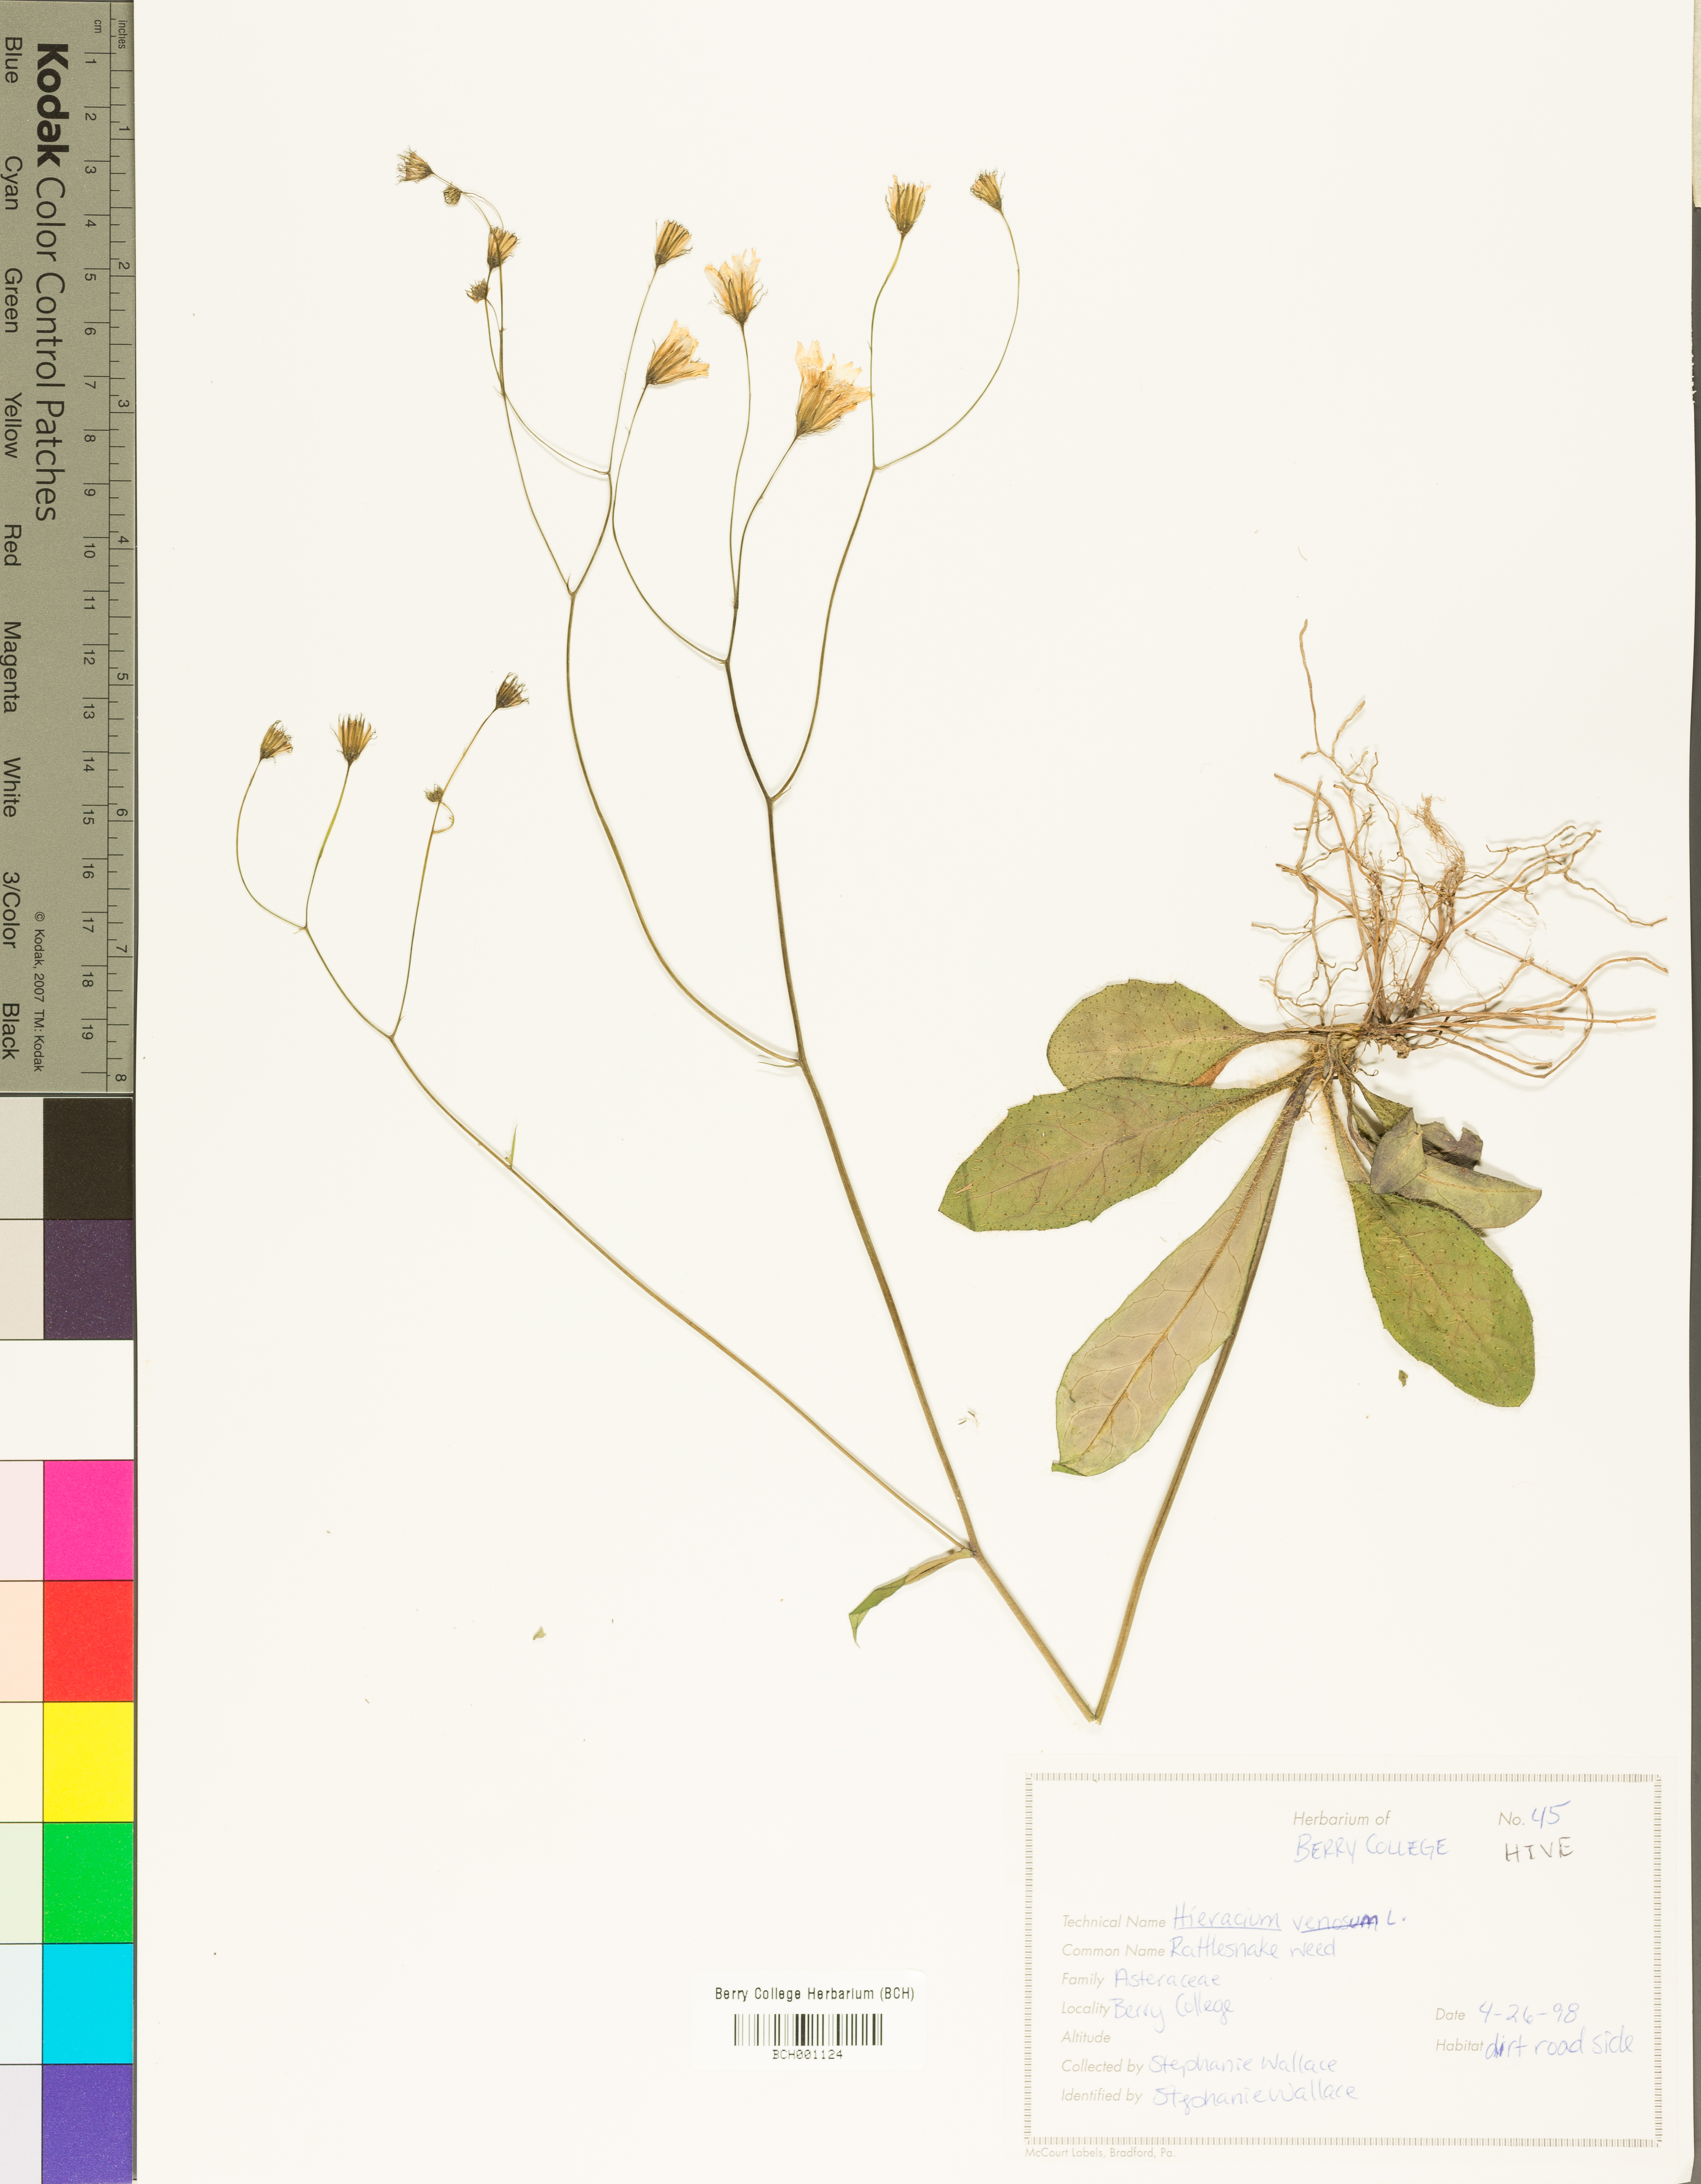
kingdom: Plantae
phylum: Tracheophyta
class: Magnoliopsida
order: Asterales
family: Asteraceae
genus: Hieracium
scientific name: Hieracium venosum
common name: Rattlesnake hawkweed
